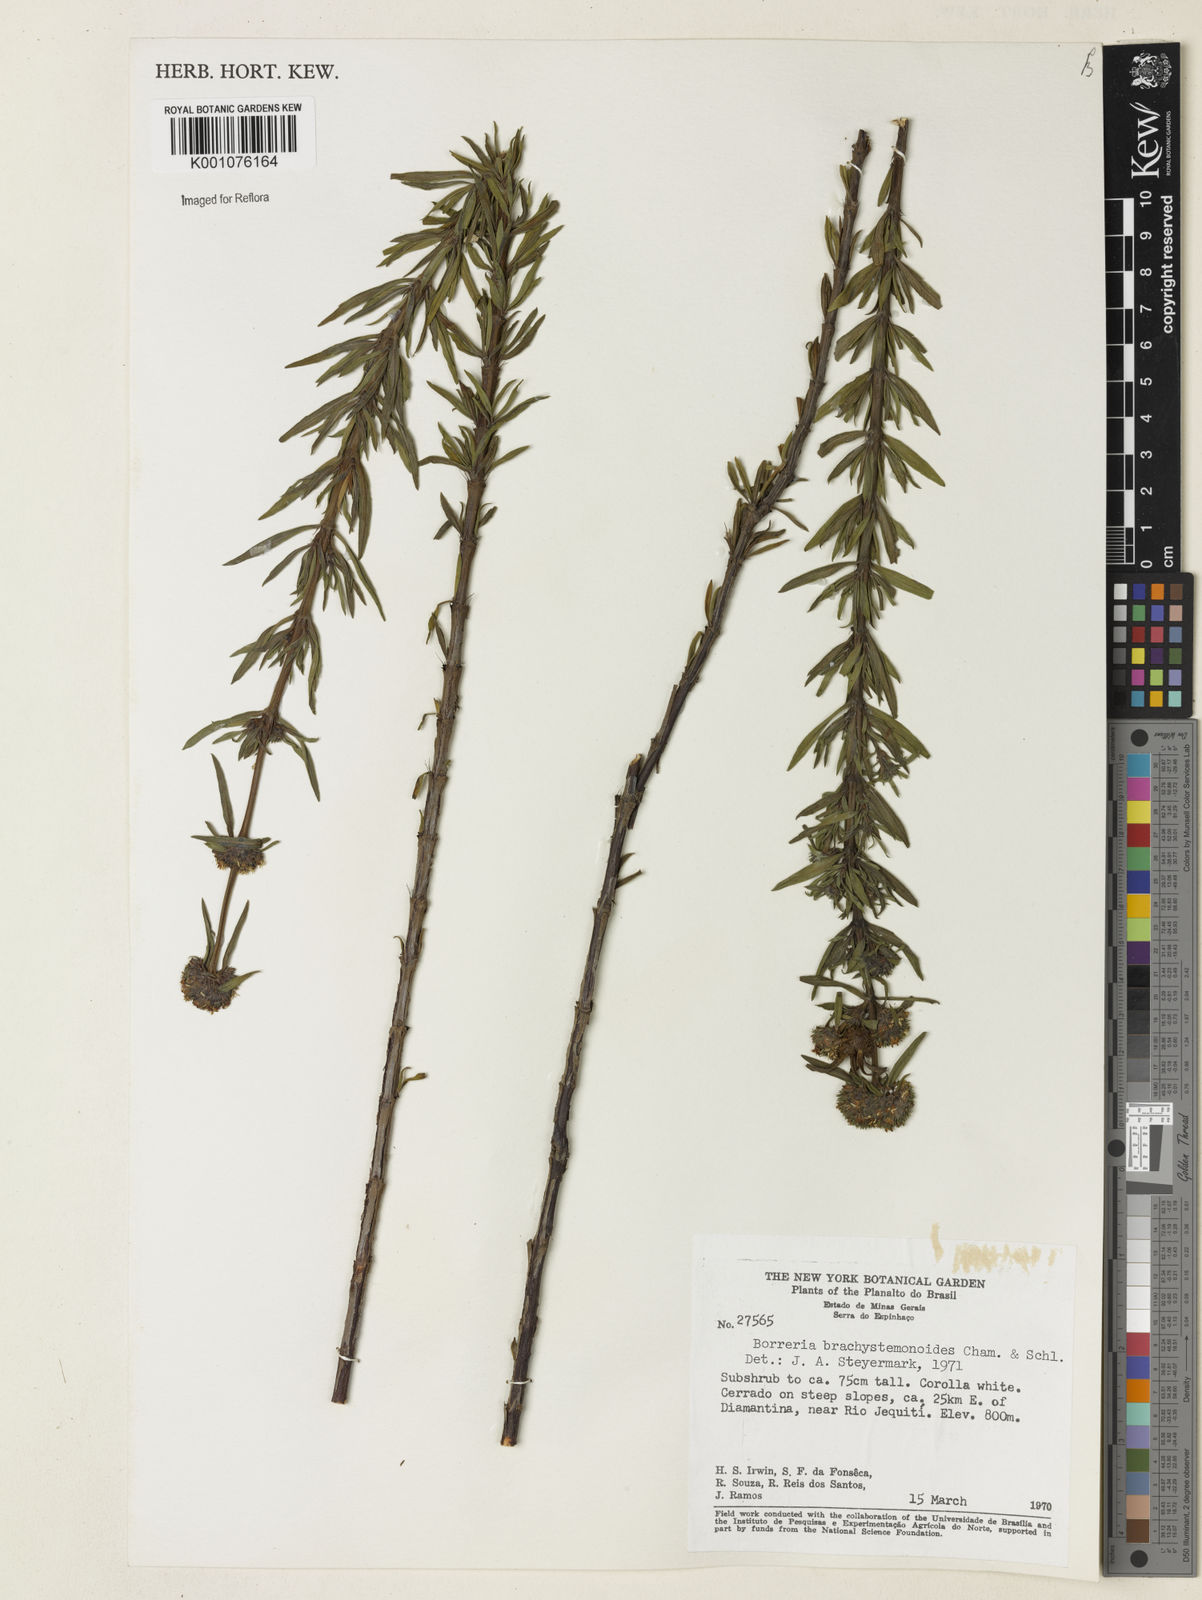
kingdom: Plantae
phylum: Tracheophyta
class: Magnoliopsida
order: Gentianales
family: Rubiaceae
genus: Spermacoce
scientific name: Spermacoce brachystemonoides
